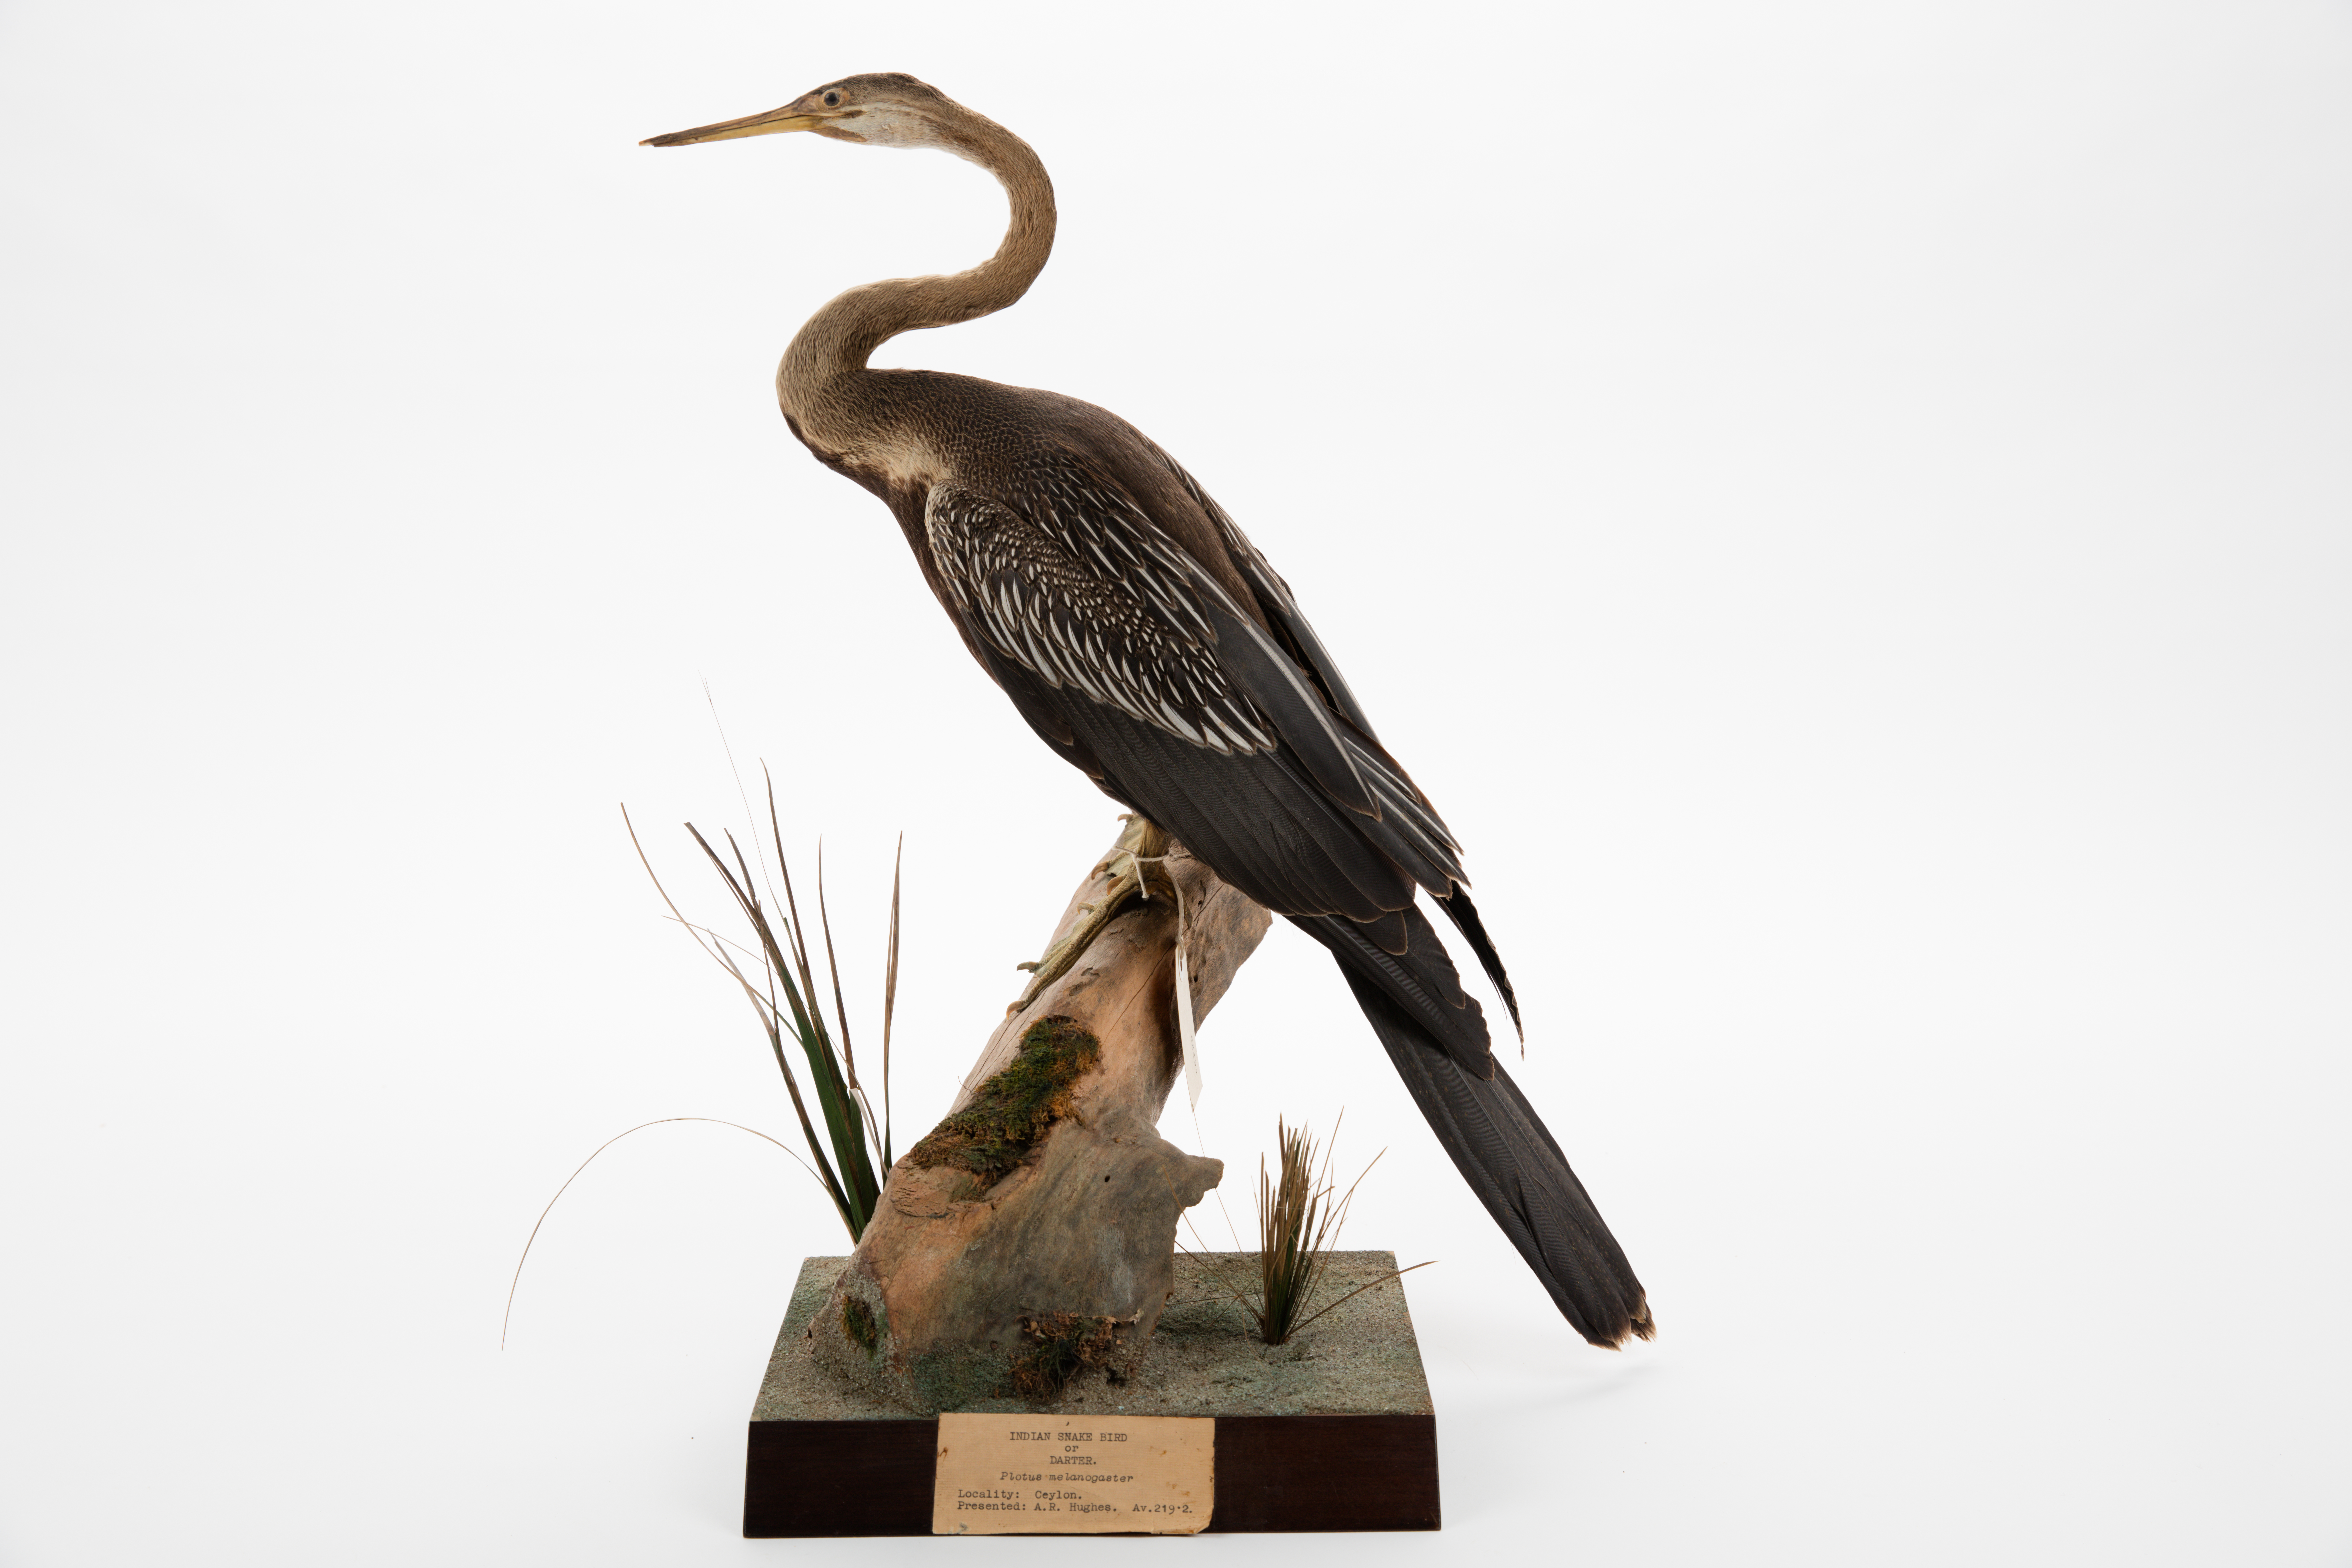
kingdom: Animalia
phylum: Chordata
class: Aves
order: Suliformes
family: Anhingidae
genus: Anhinga
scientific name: Anhinga melanogaster
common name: Oriental darter
